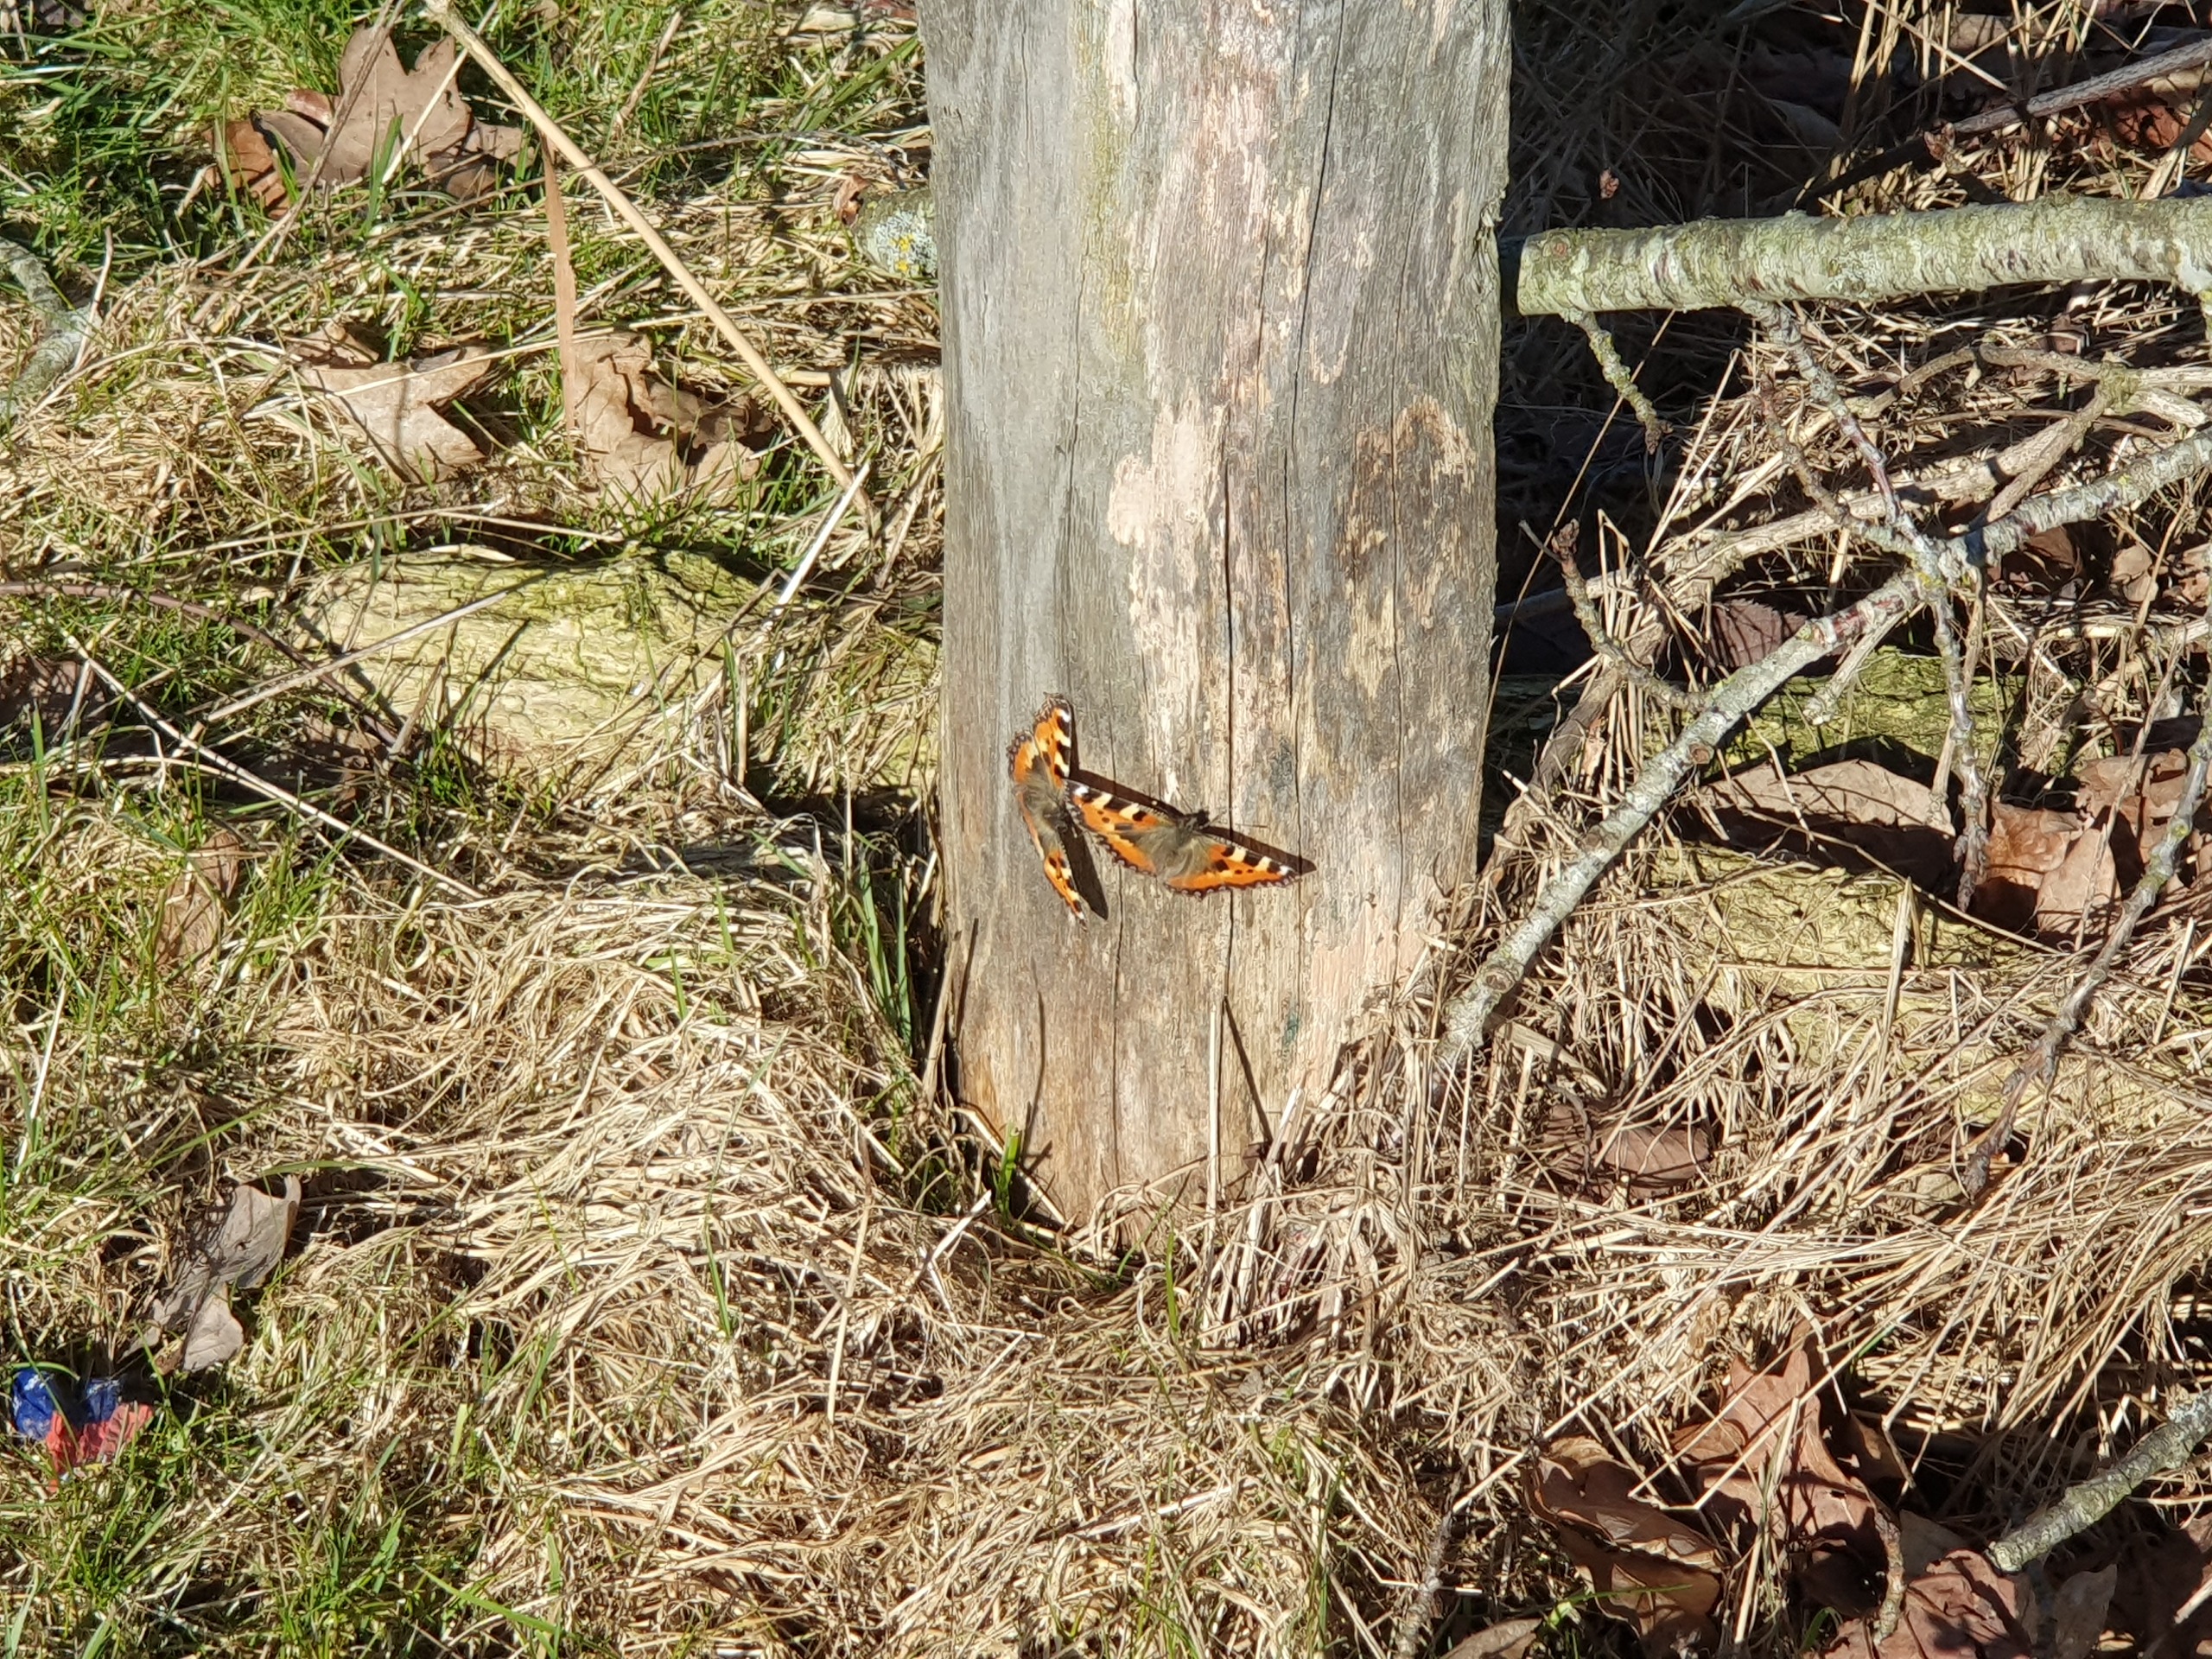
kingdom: Animalia
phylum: Arthropoda
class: Insecta
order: Lepidoptera
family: Nymphalidae
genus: Aglais
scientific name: Aglais urticae
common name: Nældens takvinge
